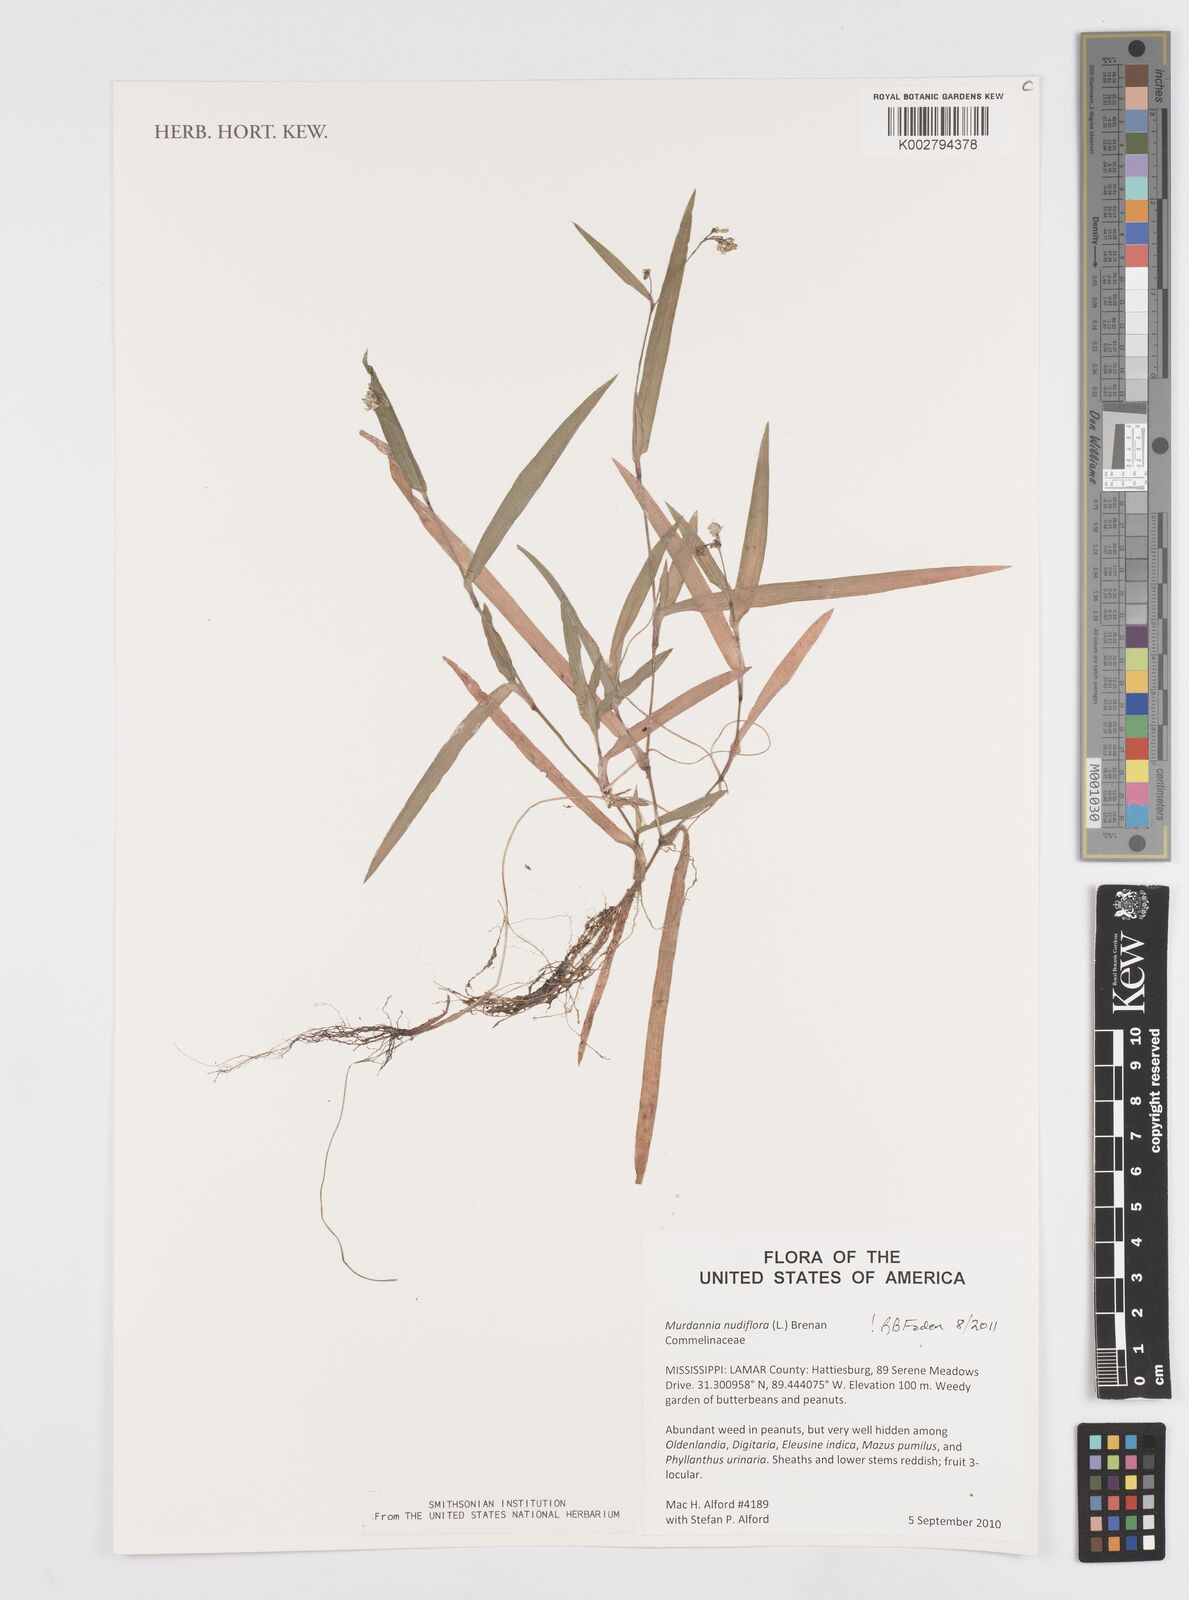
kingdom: Plantae
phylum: Tracheophyta
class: Liliopsida
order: Commelinales
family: Commelinaceae
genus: Murdannia
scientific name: Murdannia nudiflora
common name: Nakedstem dewflower
